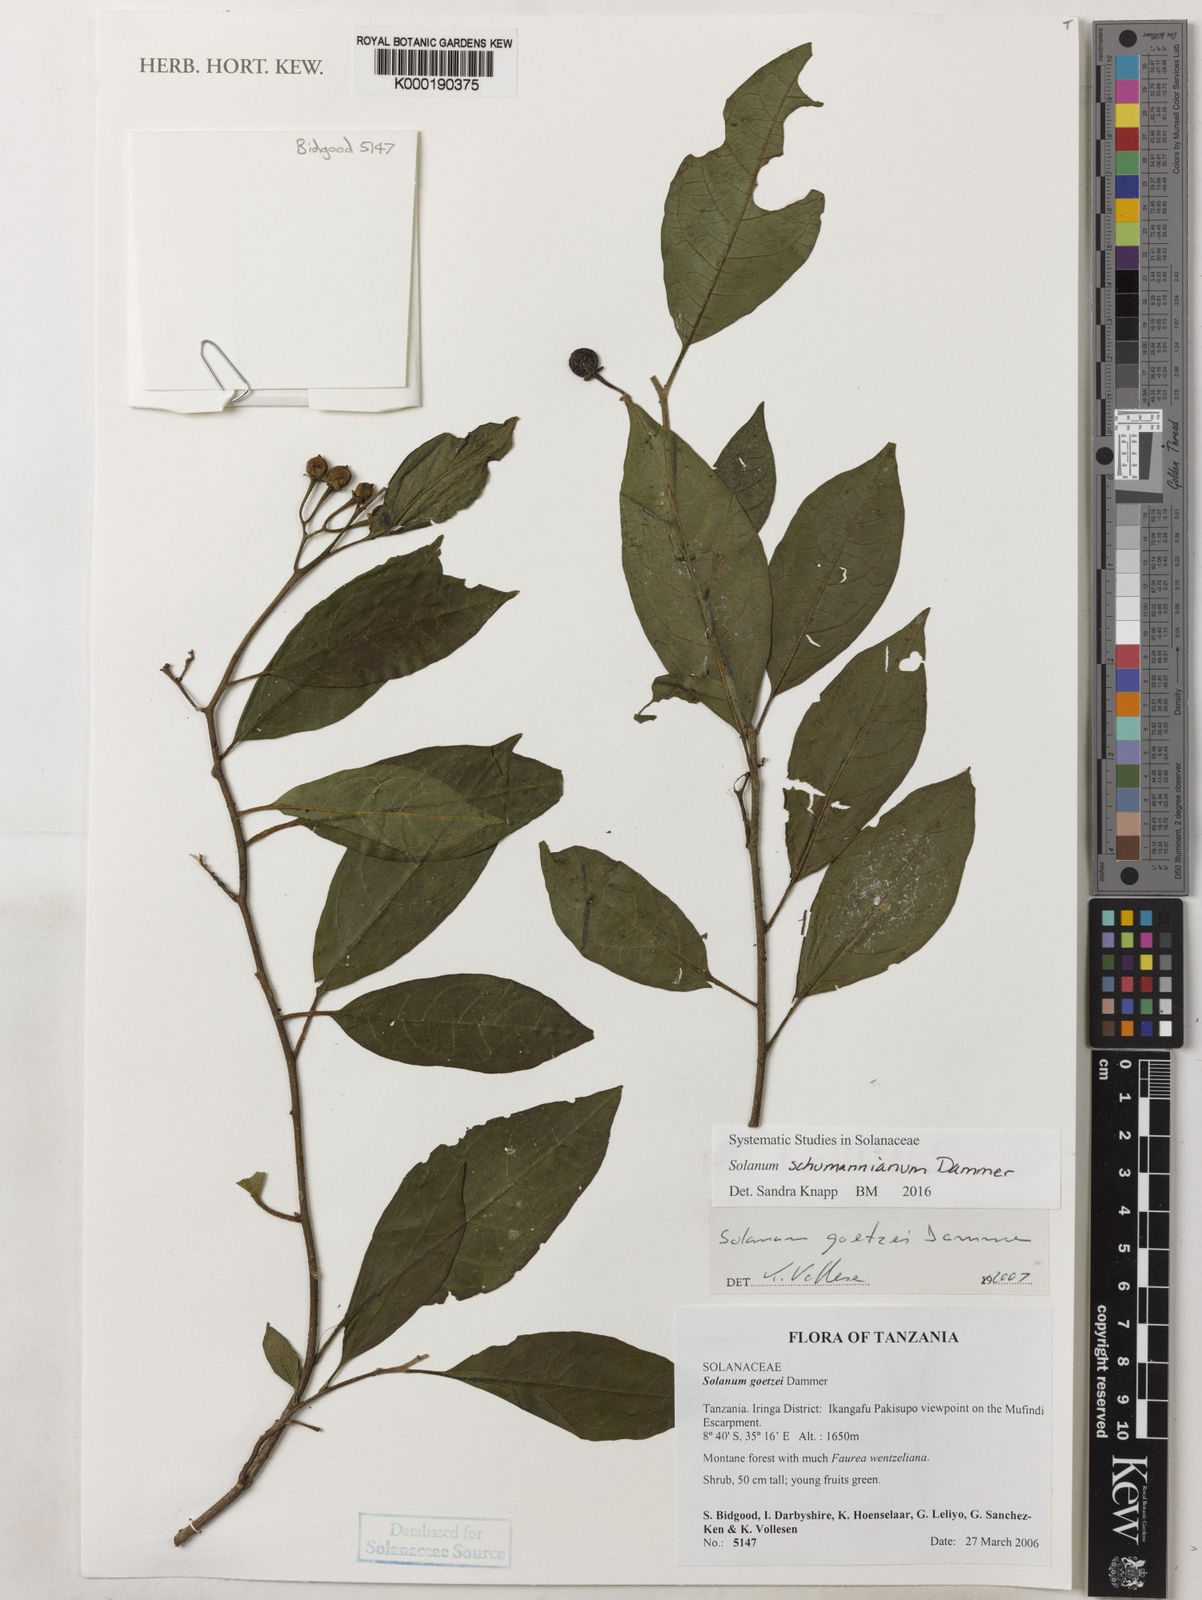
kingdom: Plantae
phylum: Tracheophyta
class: Magnoliopsida
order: Solanales
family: Solanaceae
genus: Solanum
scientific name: Solanum goetzei
